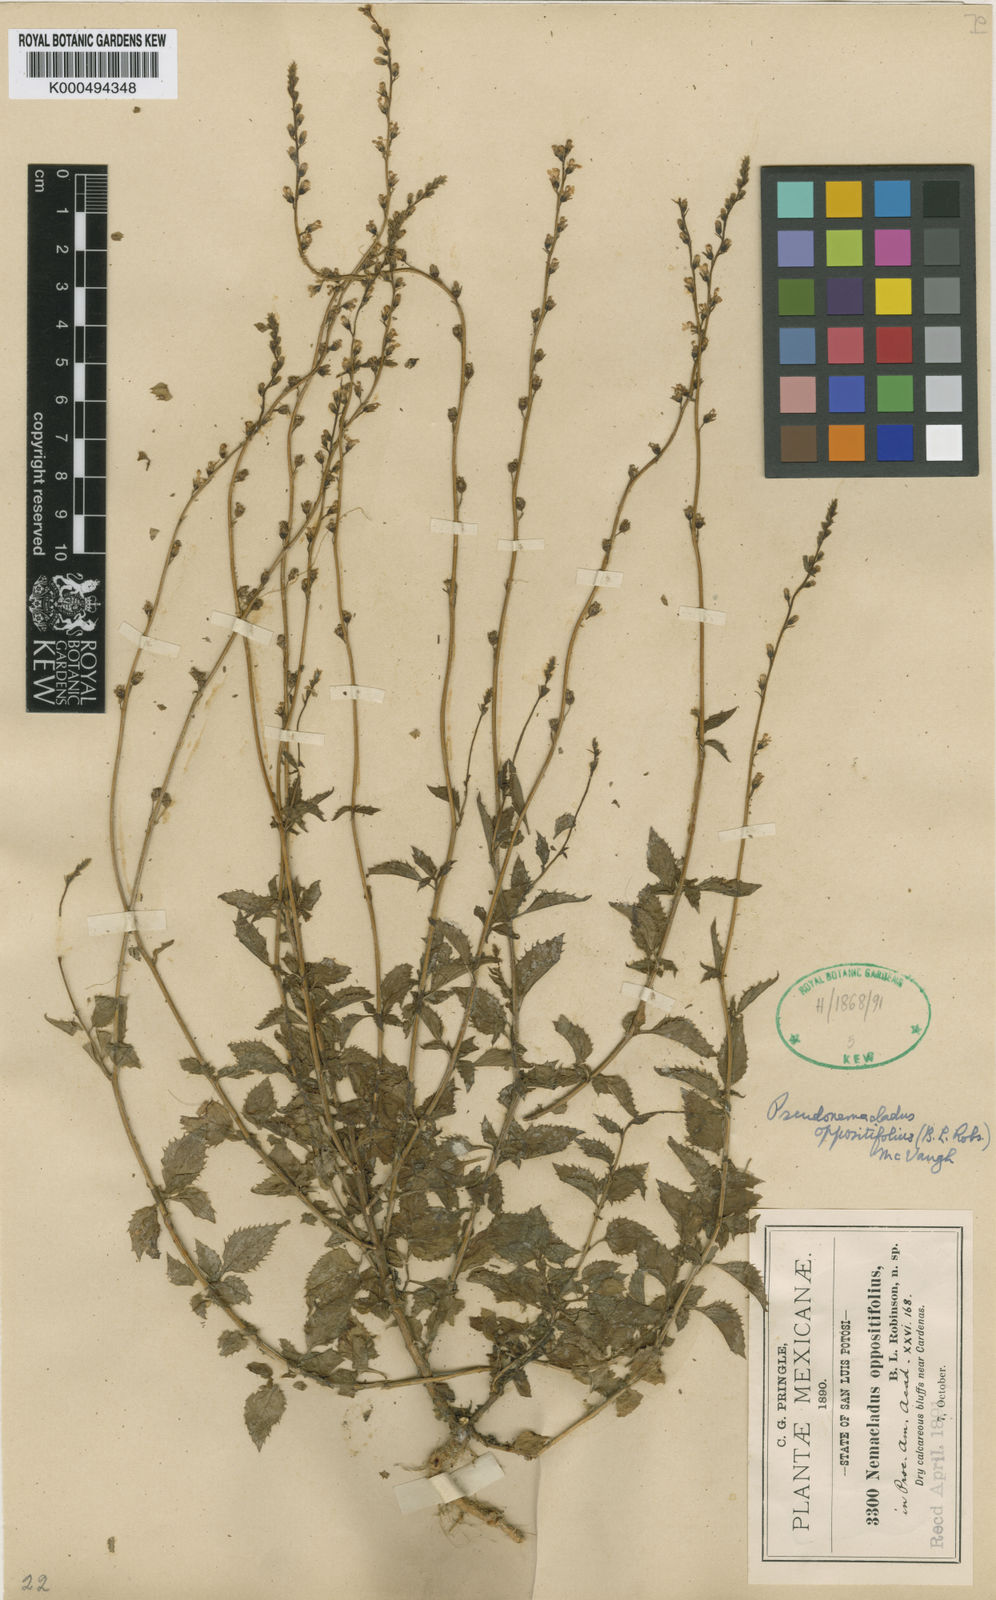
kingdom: Plantae
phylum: Tracheophyta
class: Magnoliopsida
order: Asterales
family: Campanulaceae
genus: Pseudonemacladus
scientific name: Pseudonemacladus oppositifolius
